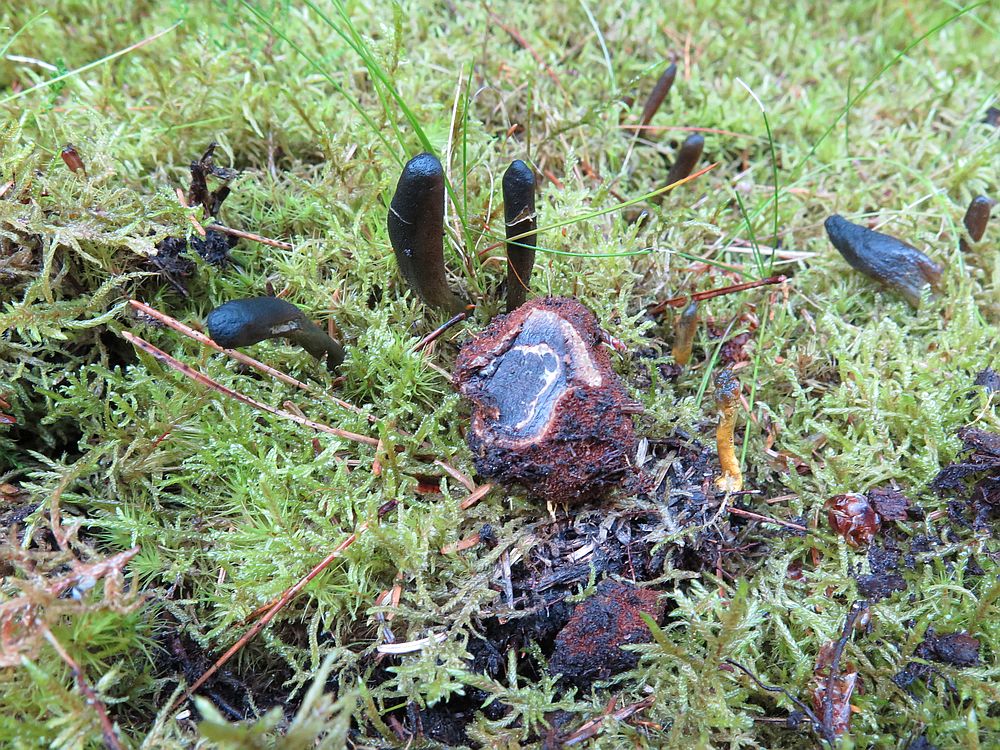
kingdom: Fungi
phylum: Ascomycota
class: Eurotiomycetes
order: Eurotiales
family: Elaphomycetaceae
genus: Elaphomyces
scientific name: Elaphomyces muricatus
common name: vortet hjortetrøffel
